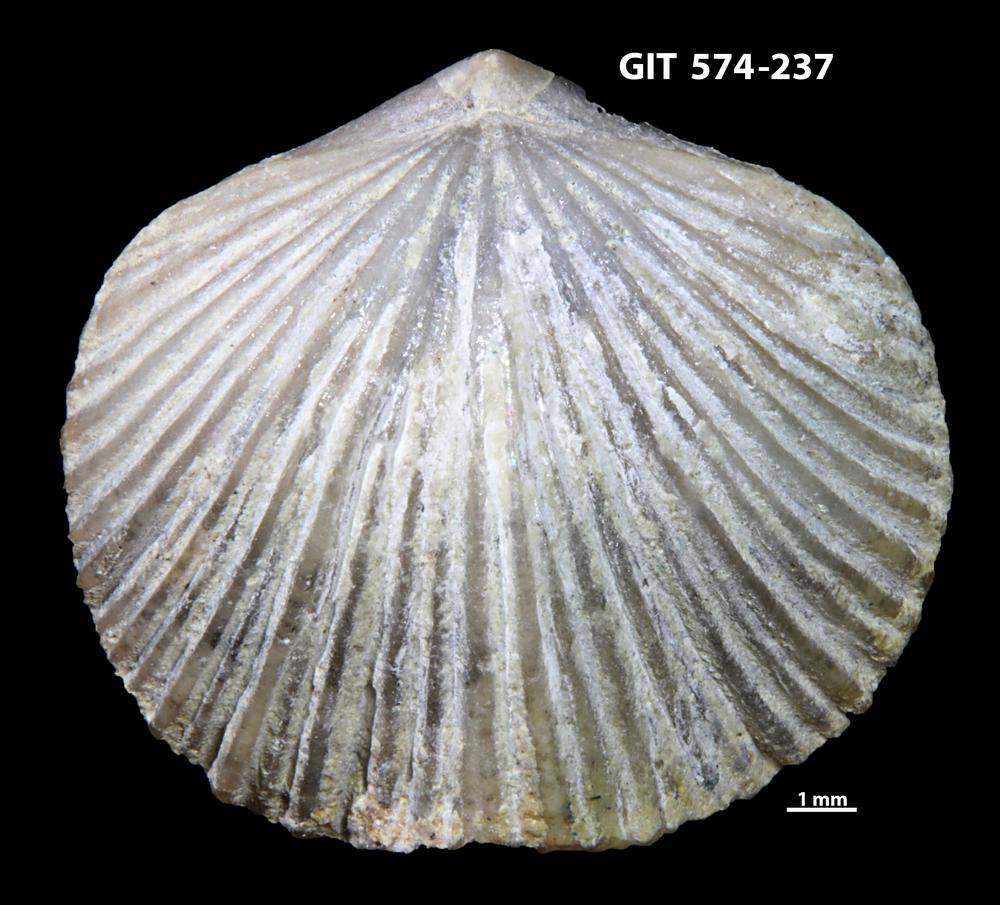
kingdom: Animalia
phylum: Brachiopoda
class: Rhynchonellata
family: Atrypinidae
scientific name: Atrypinidae
